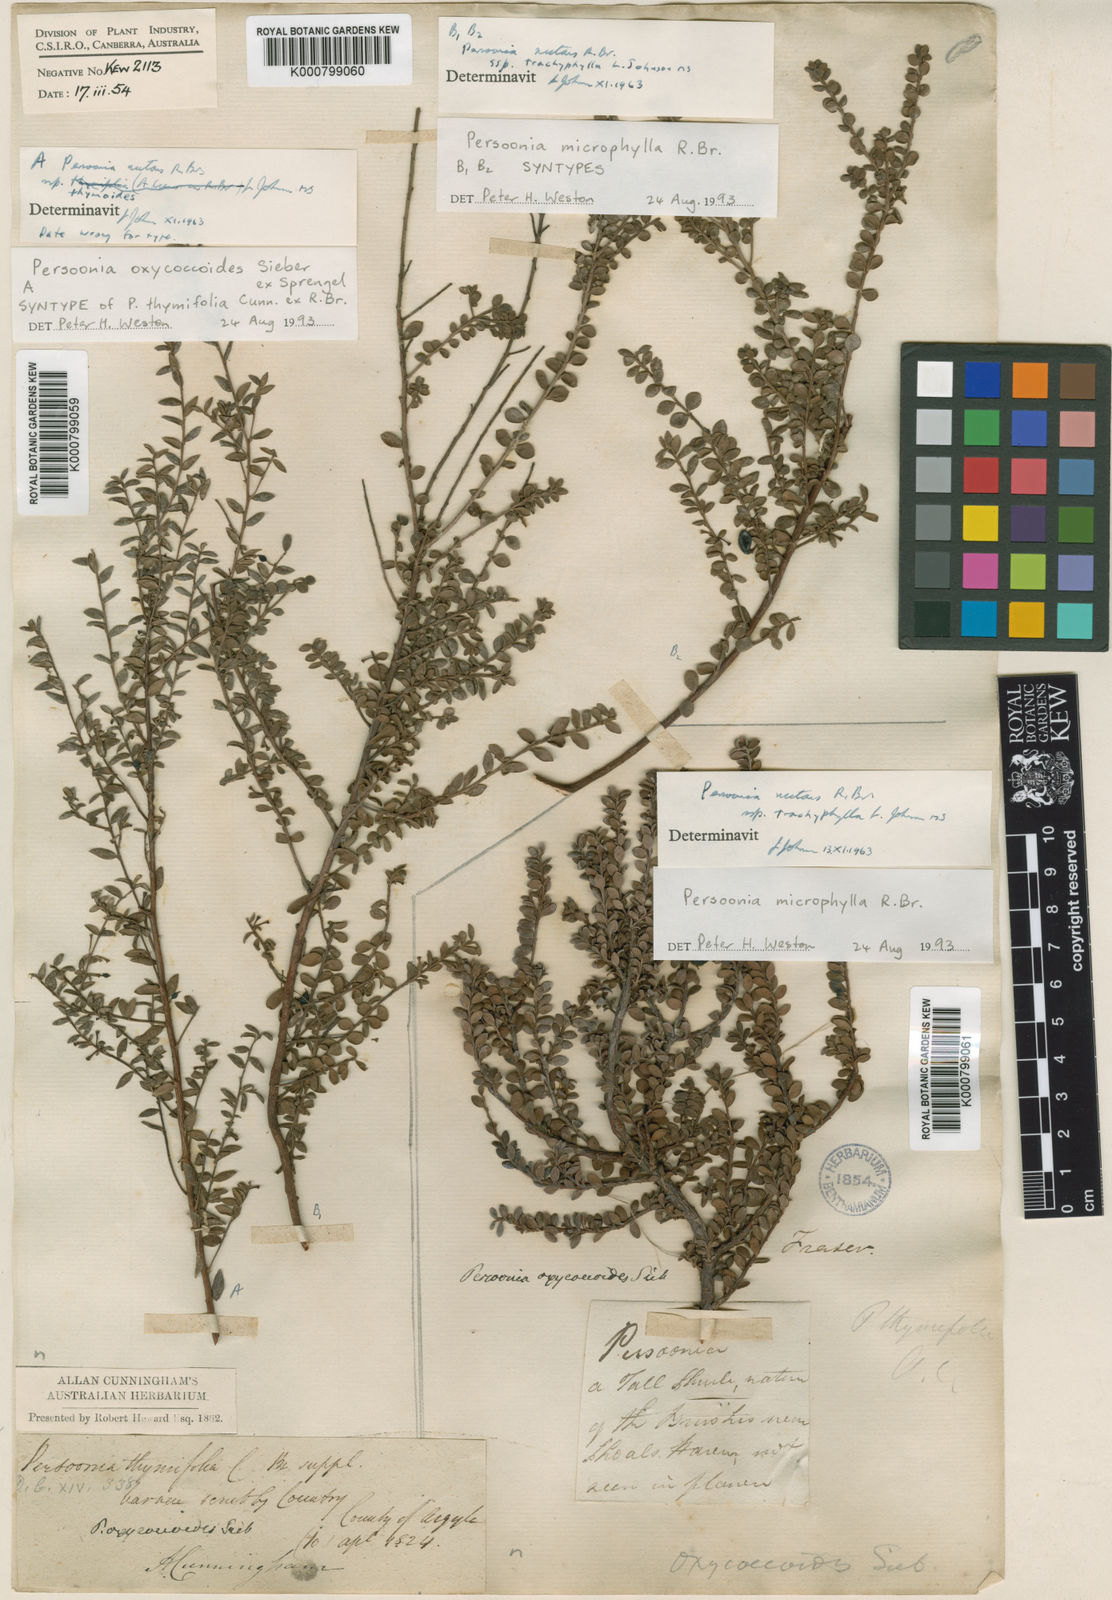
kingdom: Plantae
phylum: Tracheophyta
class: Magnoliopsida
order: Proteales
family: Proteaceae
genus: Persoonia
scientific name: Persoonia microphylla
